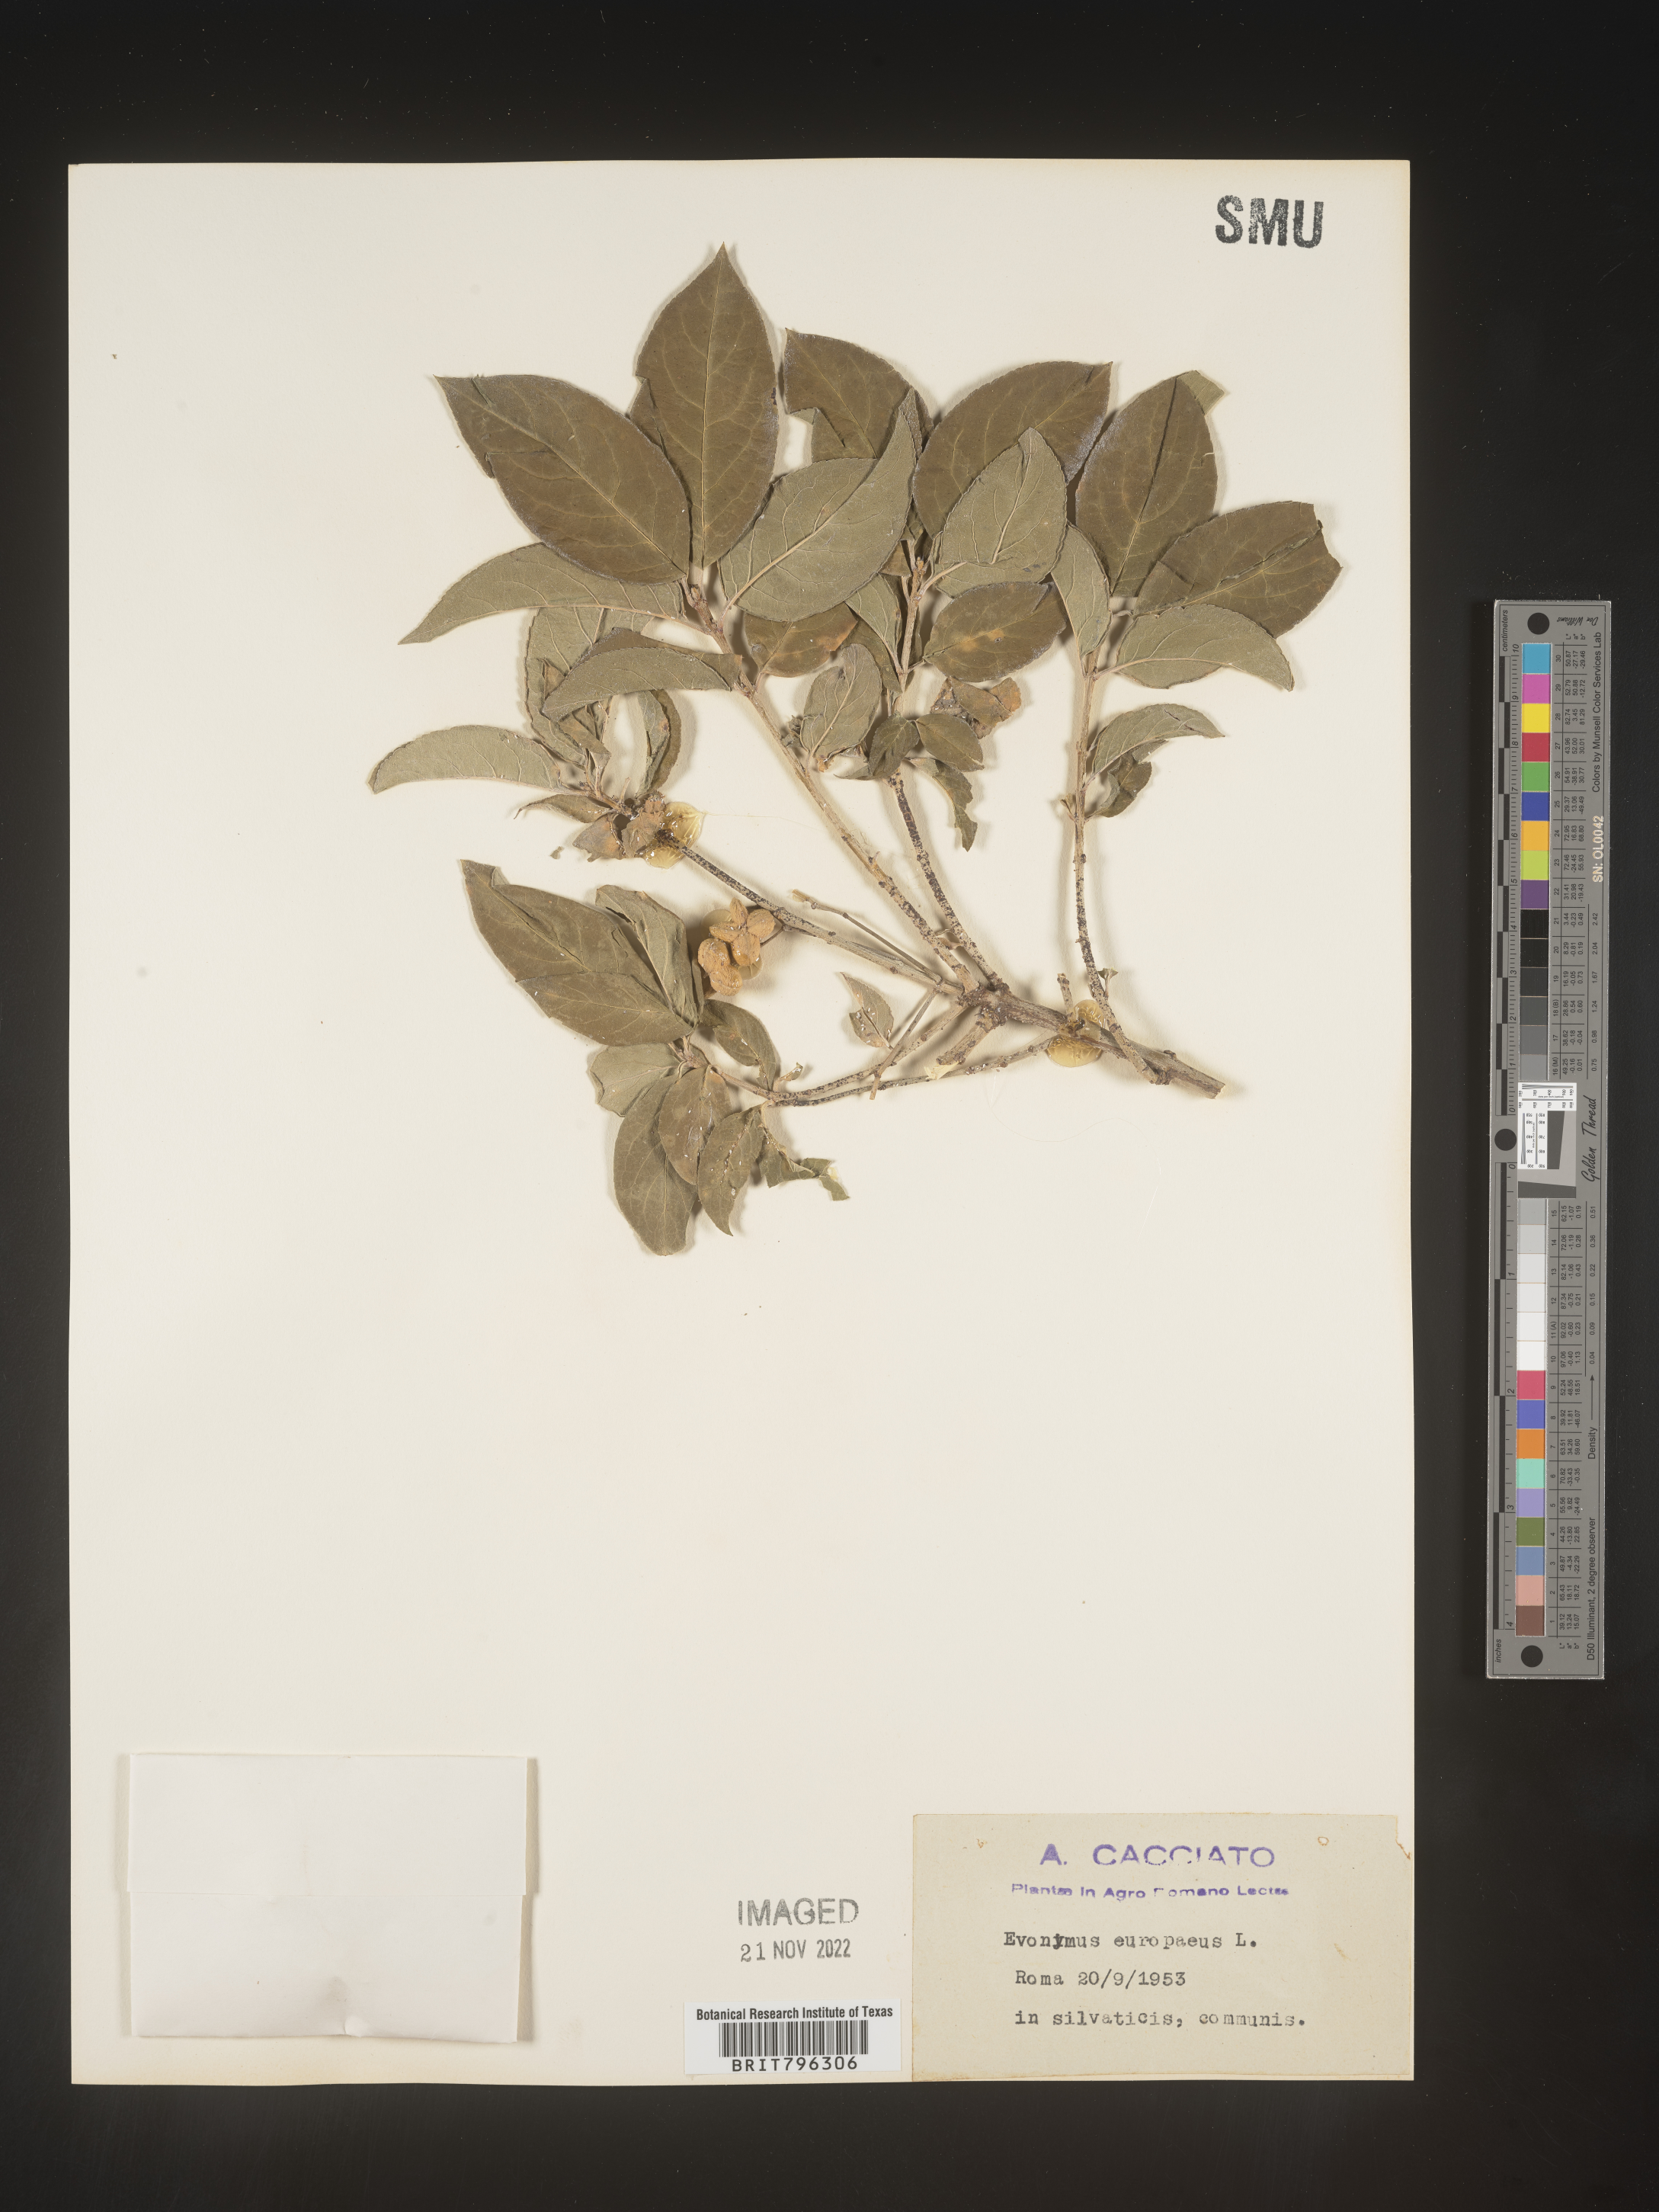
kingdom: Plantae
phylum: Tracheophyta
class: Magnoliopsida
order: Celastrales
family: Celastraceae
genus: Euonymus
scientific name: Euonymus
